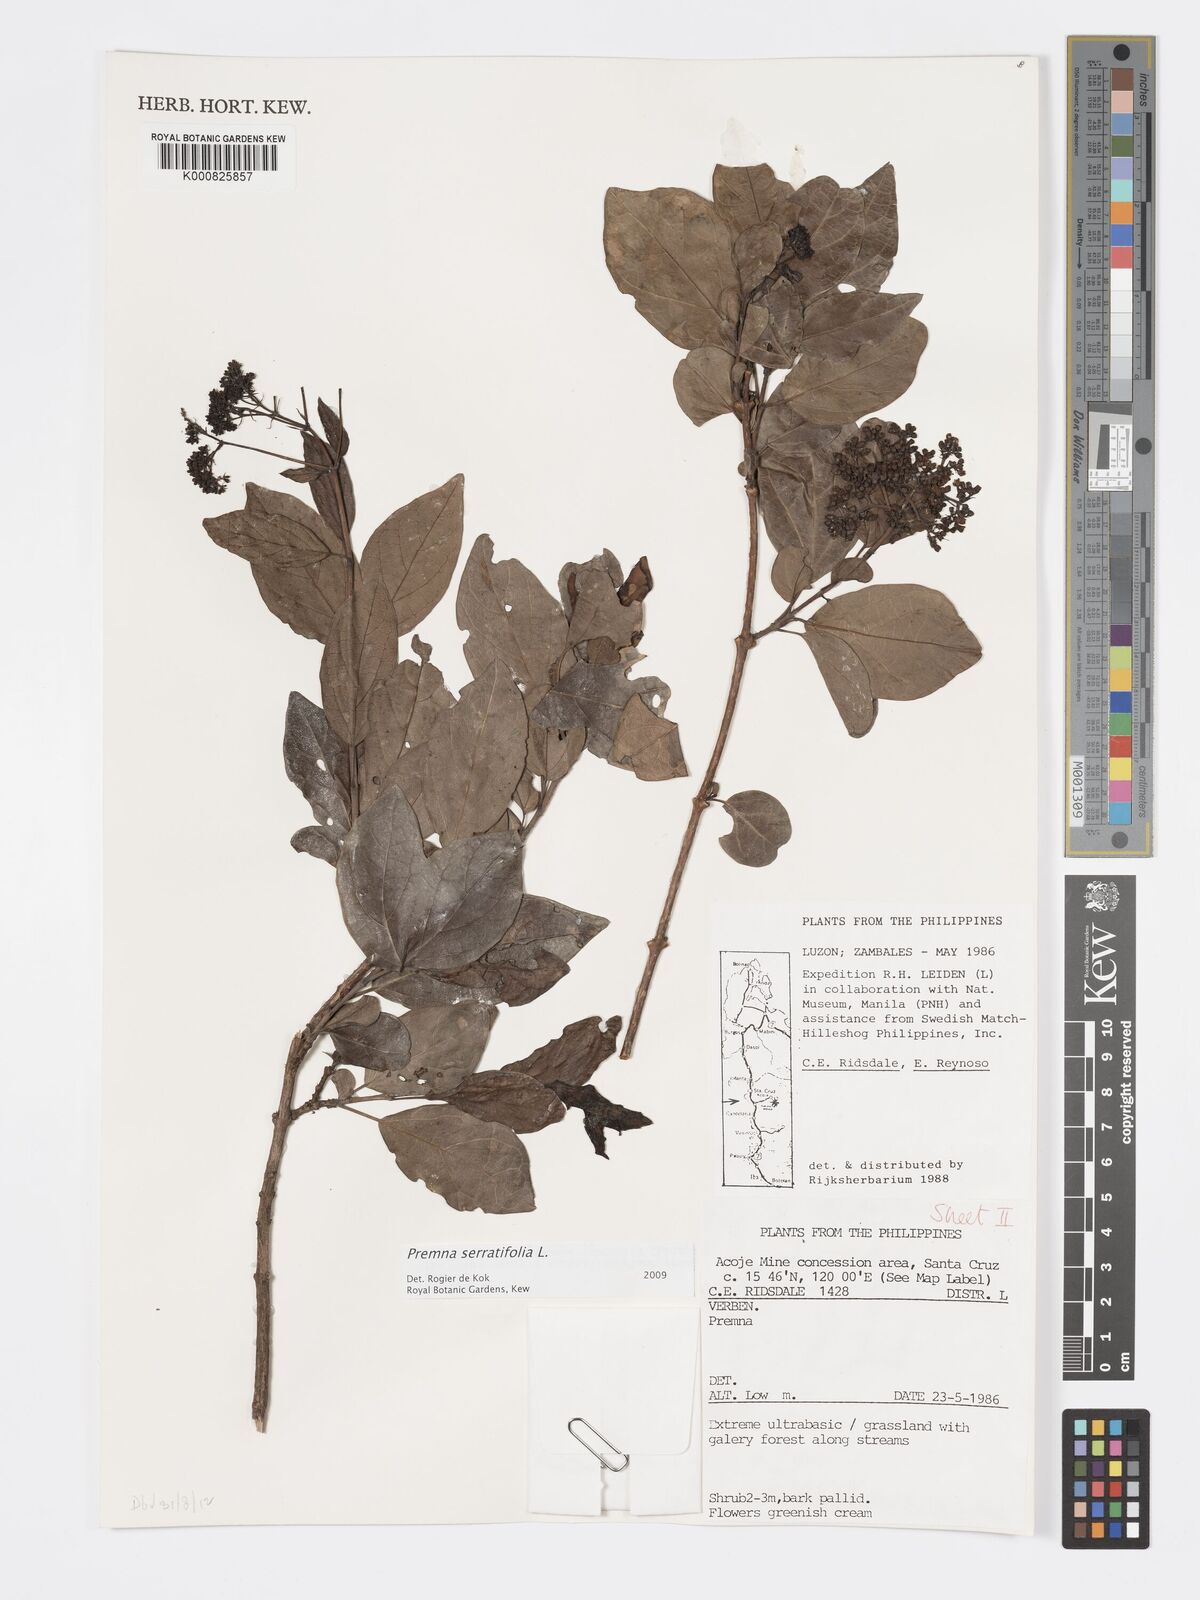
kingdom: Plantae
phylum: Tracheophyta
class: Magnoliopsida
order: Lamiales
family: Lamiaceae
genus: Premna
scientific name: Premna serratifolia
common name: Bastard guelder
